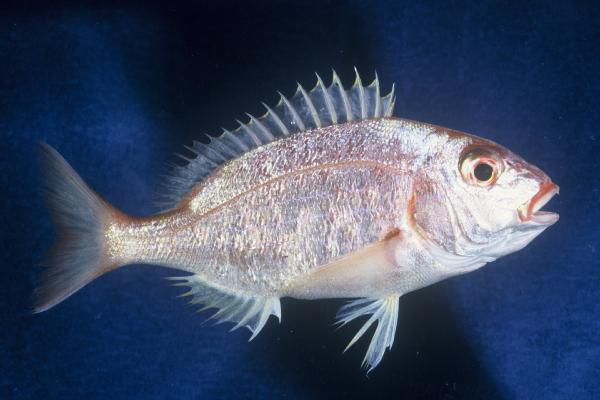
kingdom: Animalia
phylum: Chordata
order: Perciformes
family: Sparidae
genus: Pterogymnus
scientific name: Pterogymnus laniarius
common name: Panga
